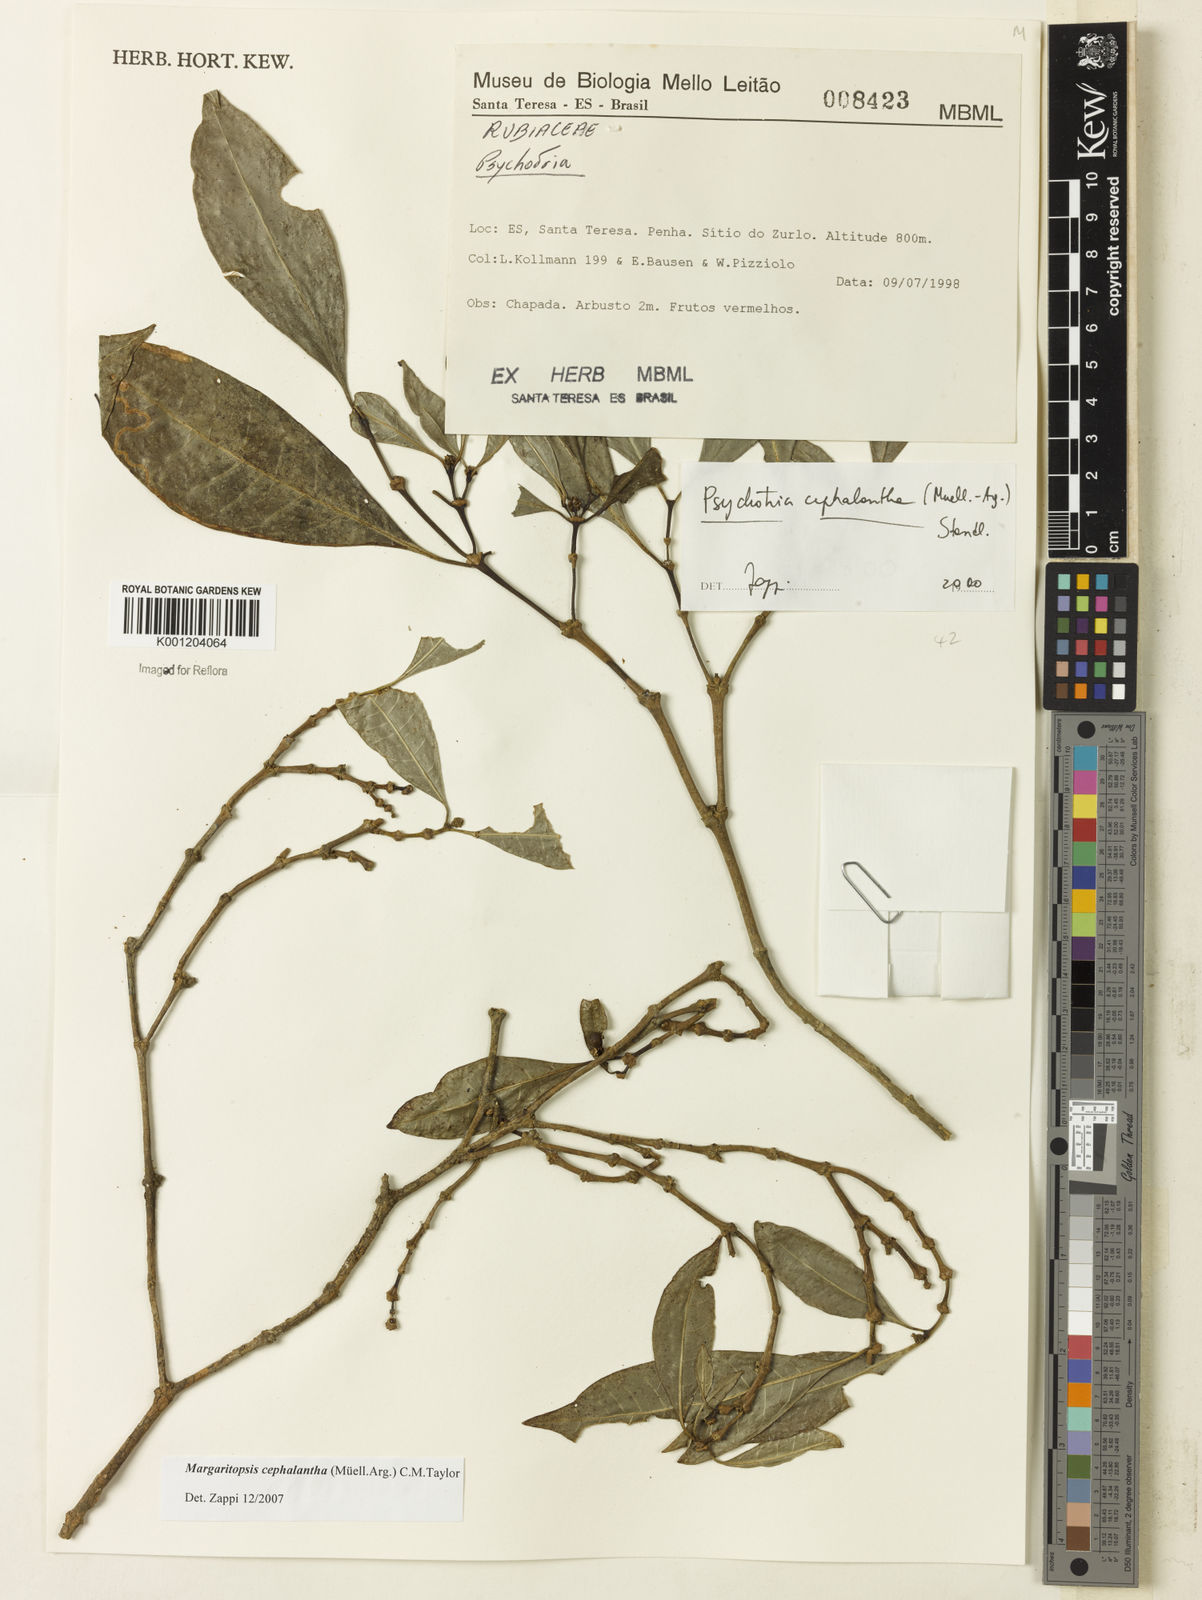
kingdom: Plantae
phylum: Tracheophyta
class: Magnoliopsida
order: Gentianales
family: Rubiaceae
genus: Eumachia
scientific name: Eumachia
